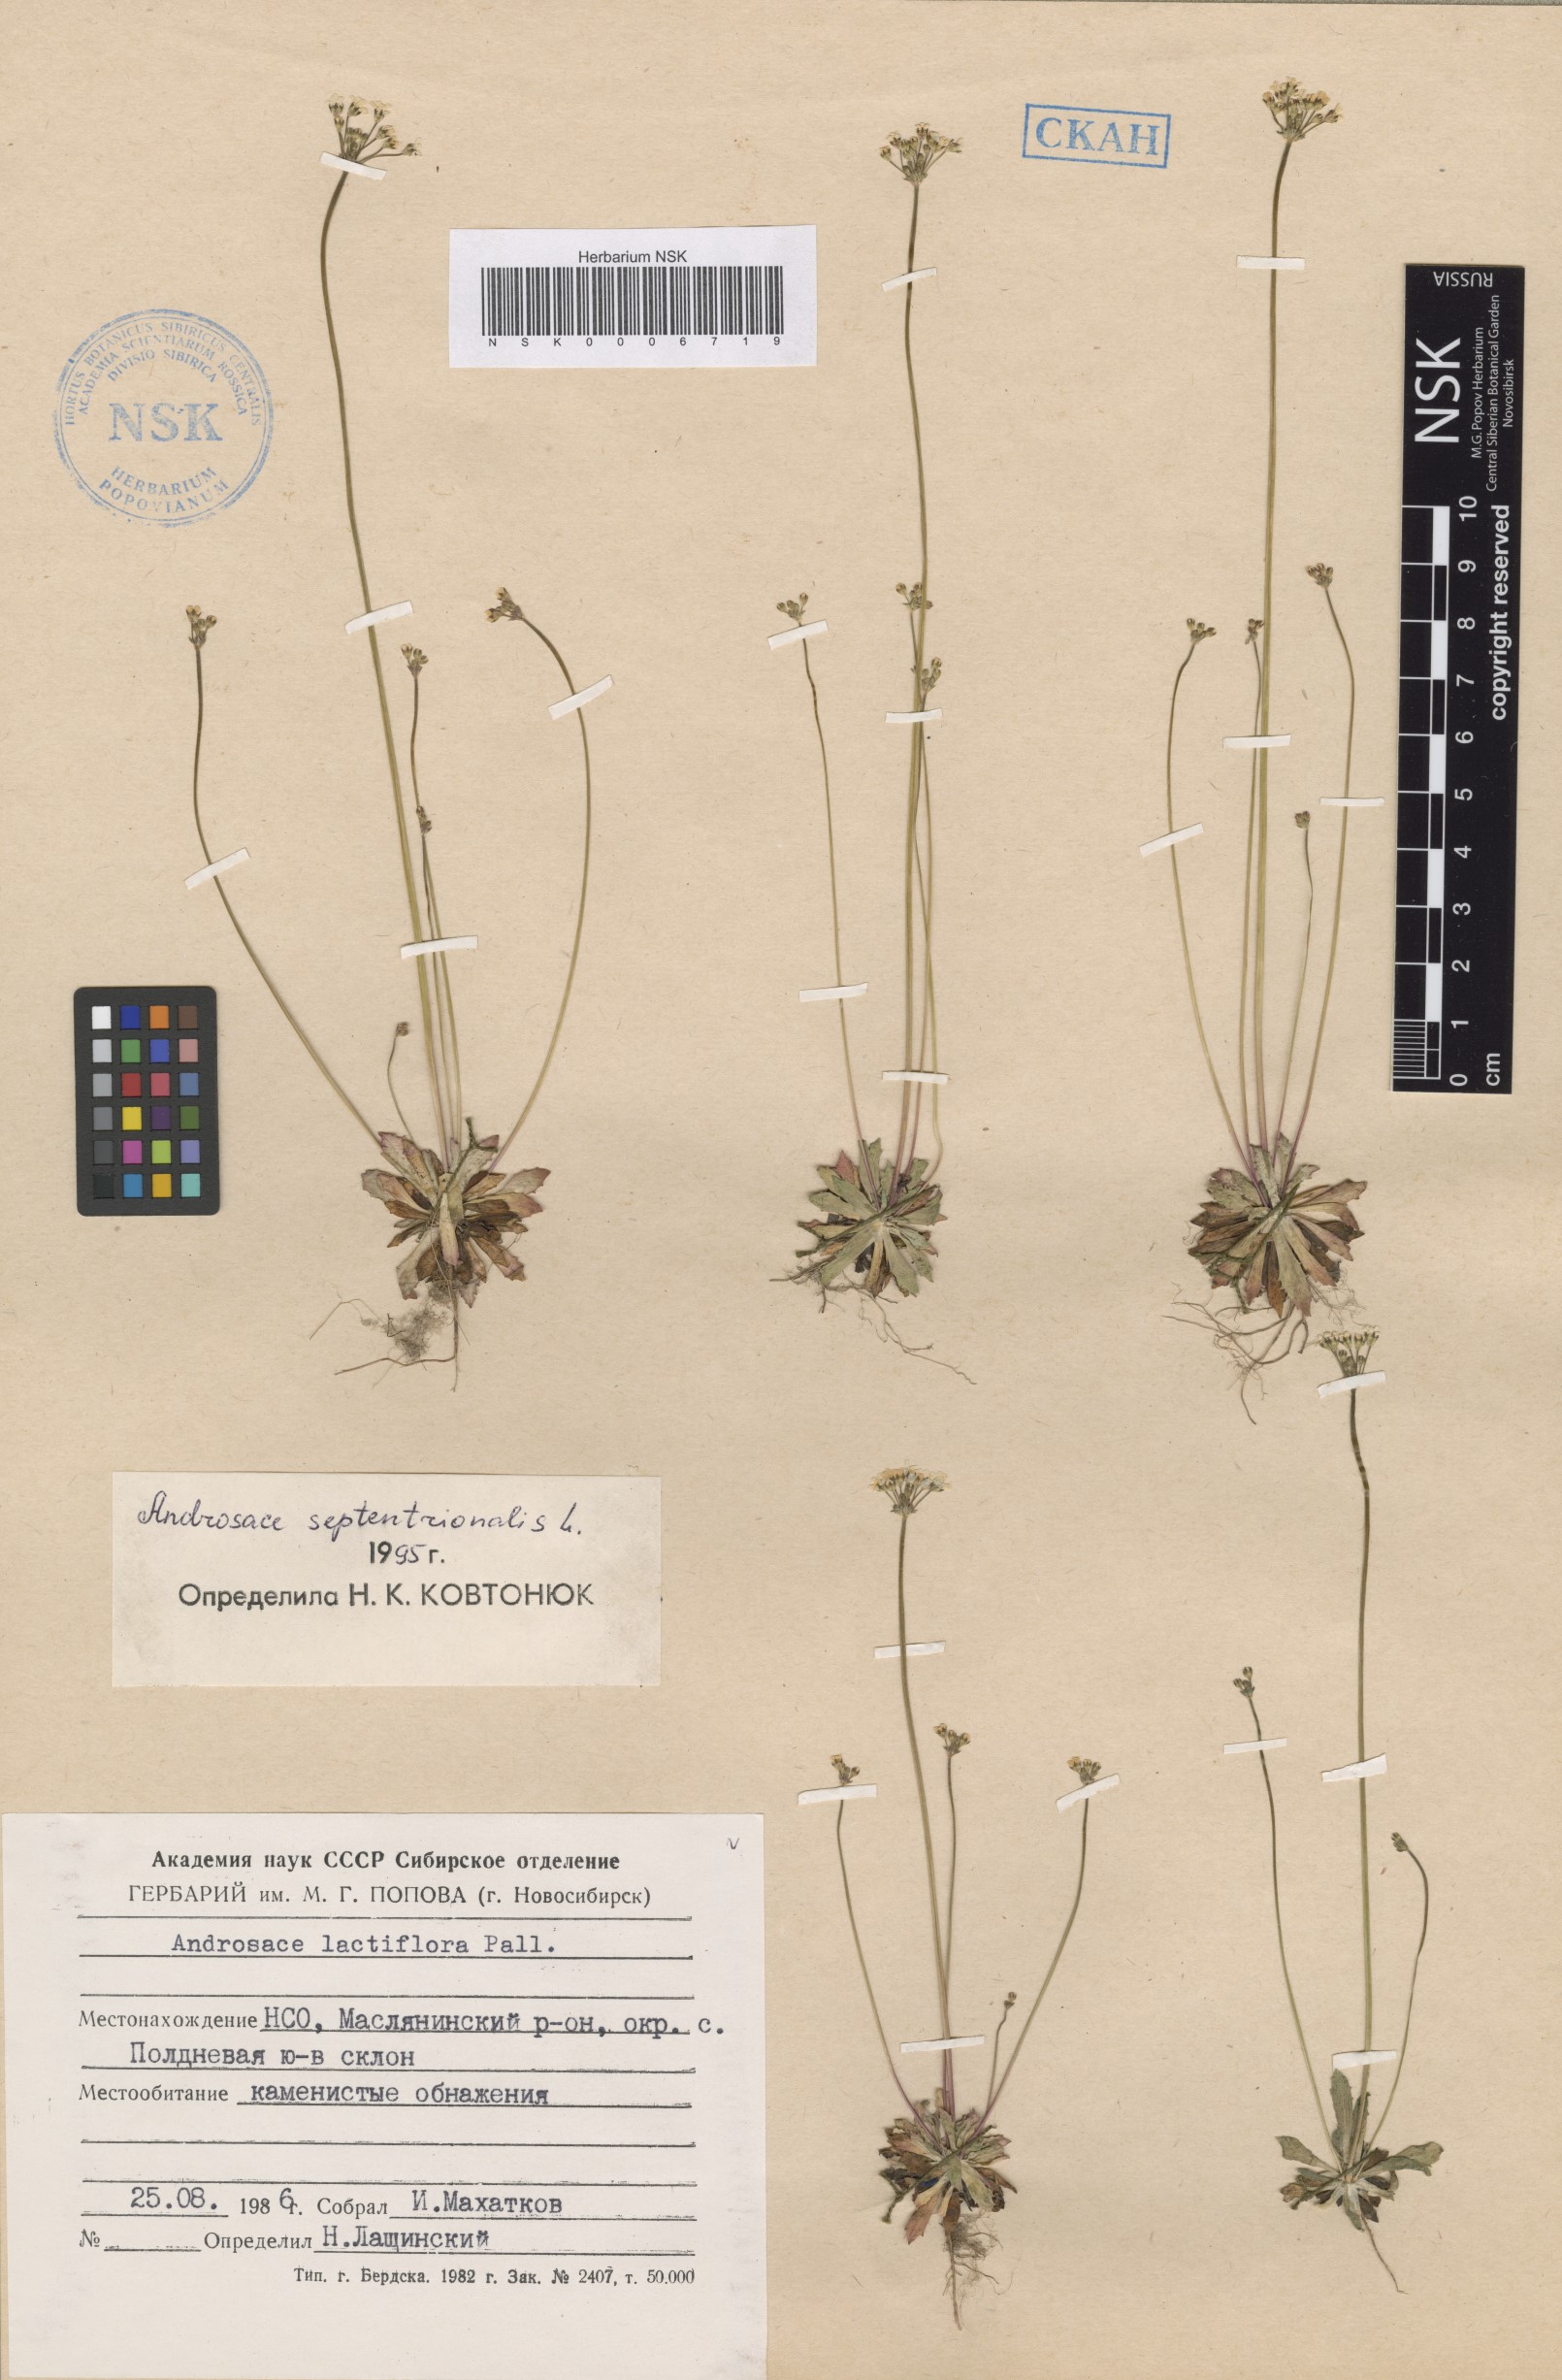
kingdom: Plantae
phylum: Tracheophyta
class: Magnoliopsida
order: Ericales
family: Primulaceae
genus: Androsace
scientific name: Androsace septentrionalis
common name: Hairy northern fairy-candelabra
